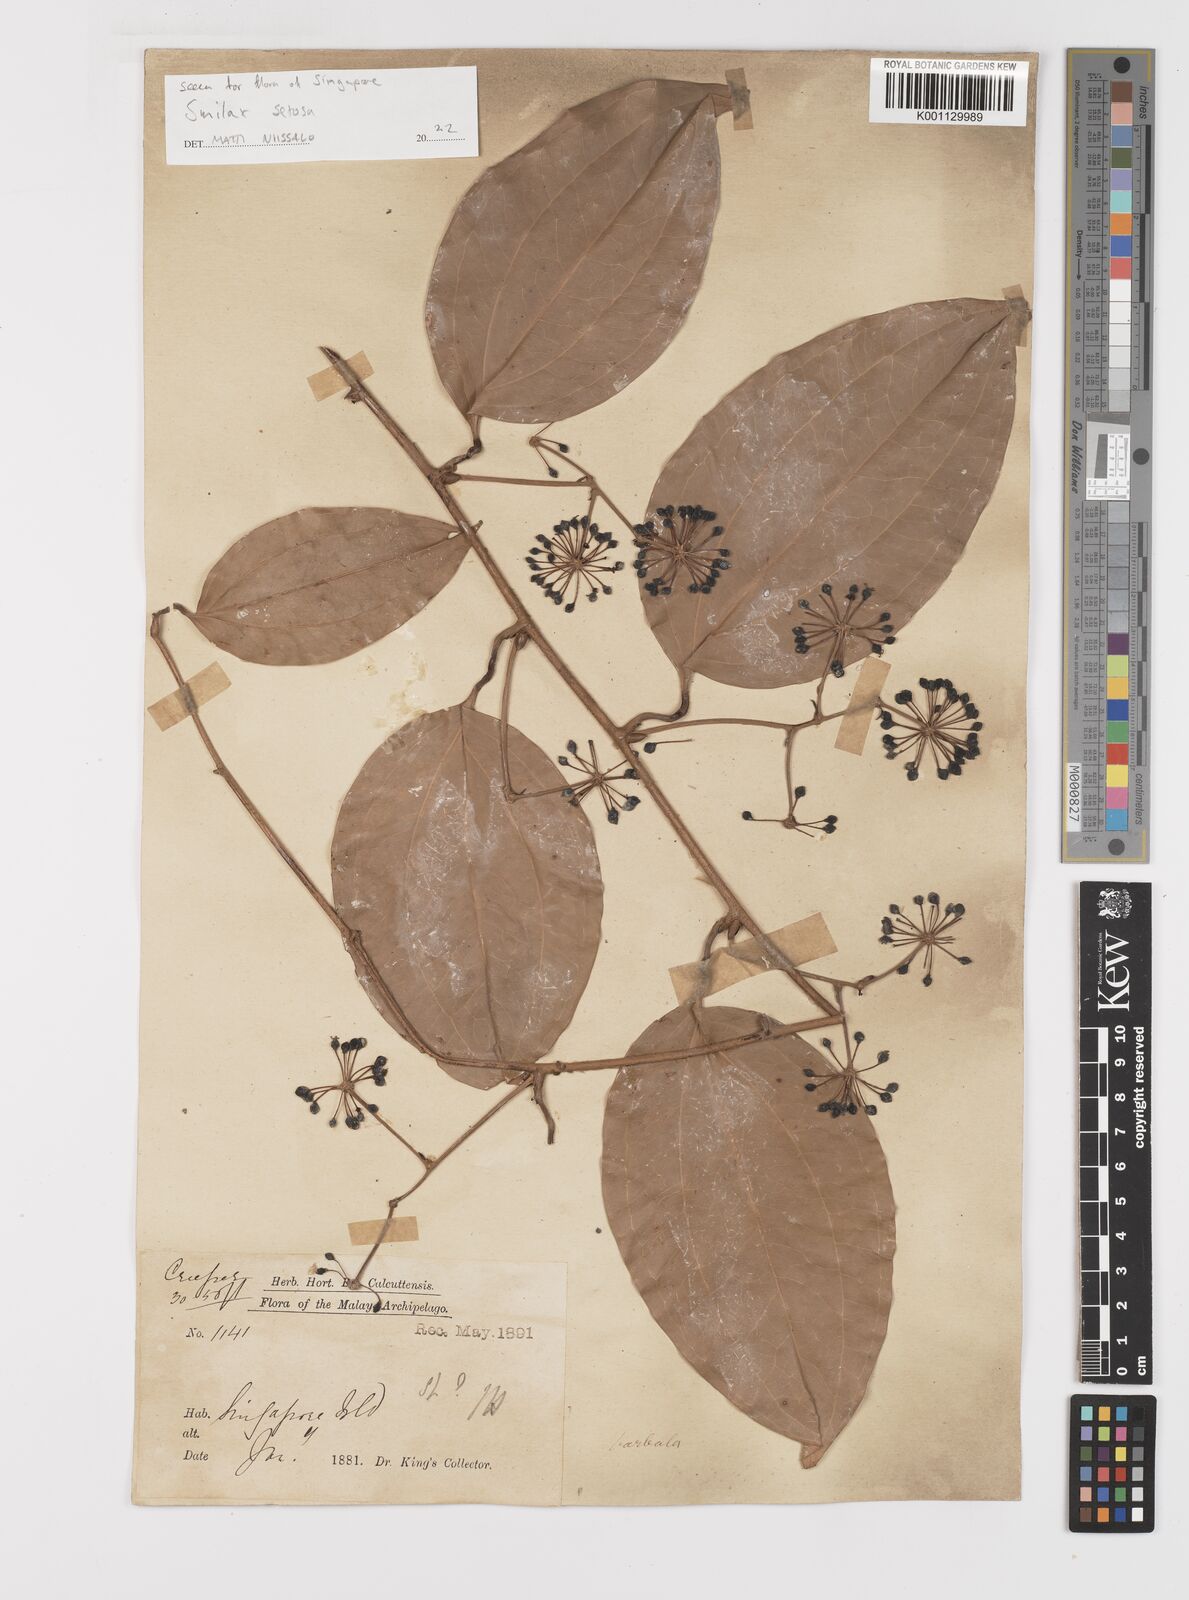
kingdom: Plantae
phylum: Tracheophyta
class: Liliopsida
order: Liliales
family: Smilacaceae
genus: Smilax
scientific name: Smilax setosa
